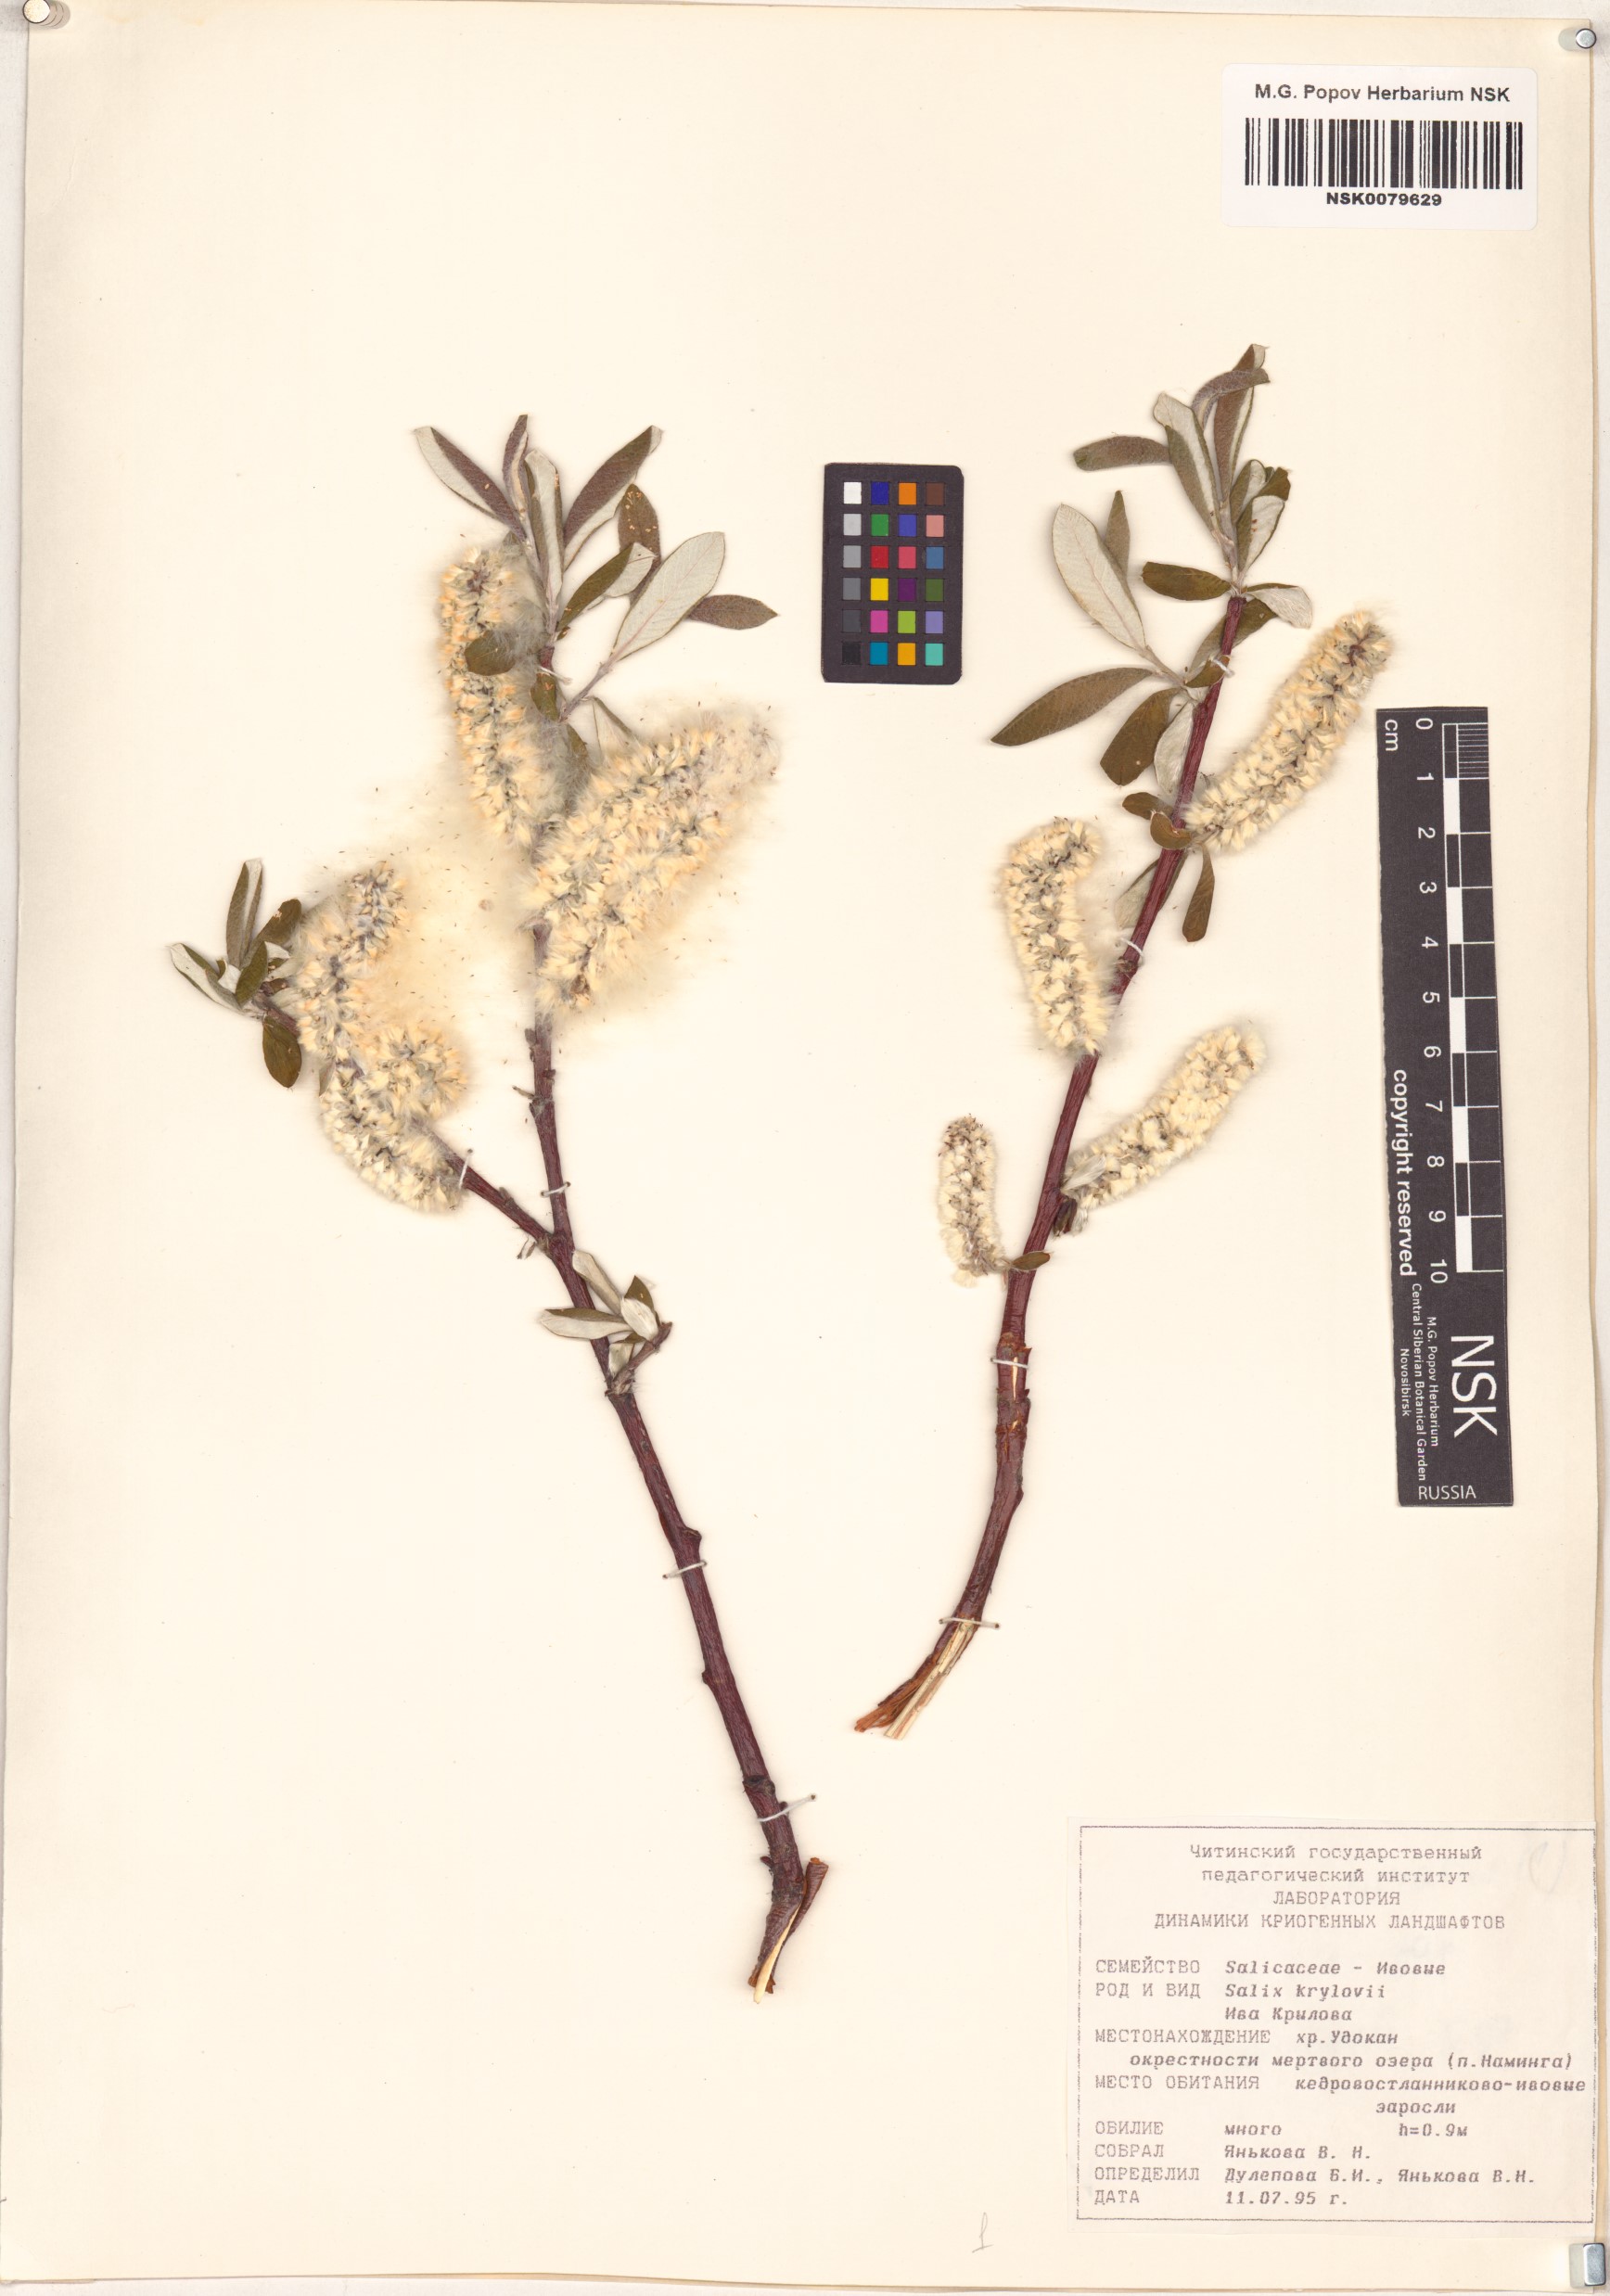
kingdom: Plantae
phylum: Tracheophyta
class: Magnoliopsida
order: Malpighiales
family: Salicaceae
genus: Salix
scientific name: Salix krylovii
